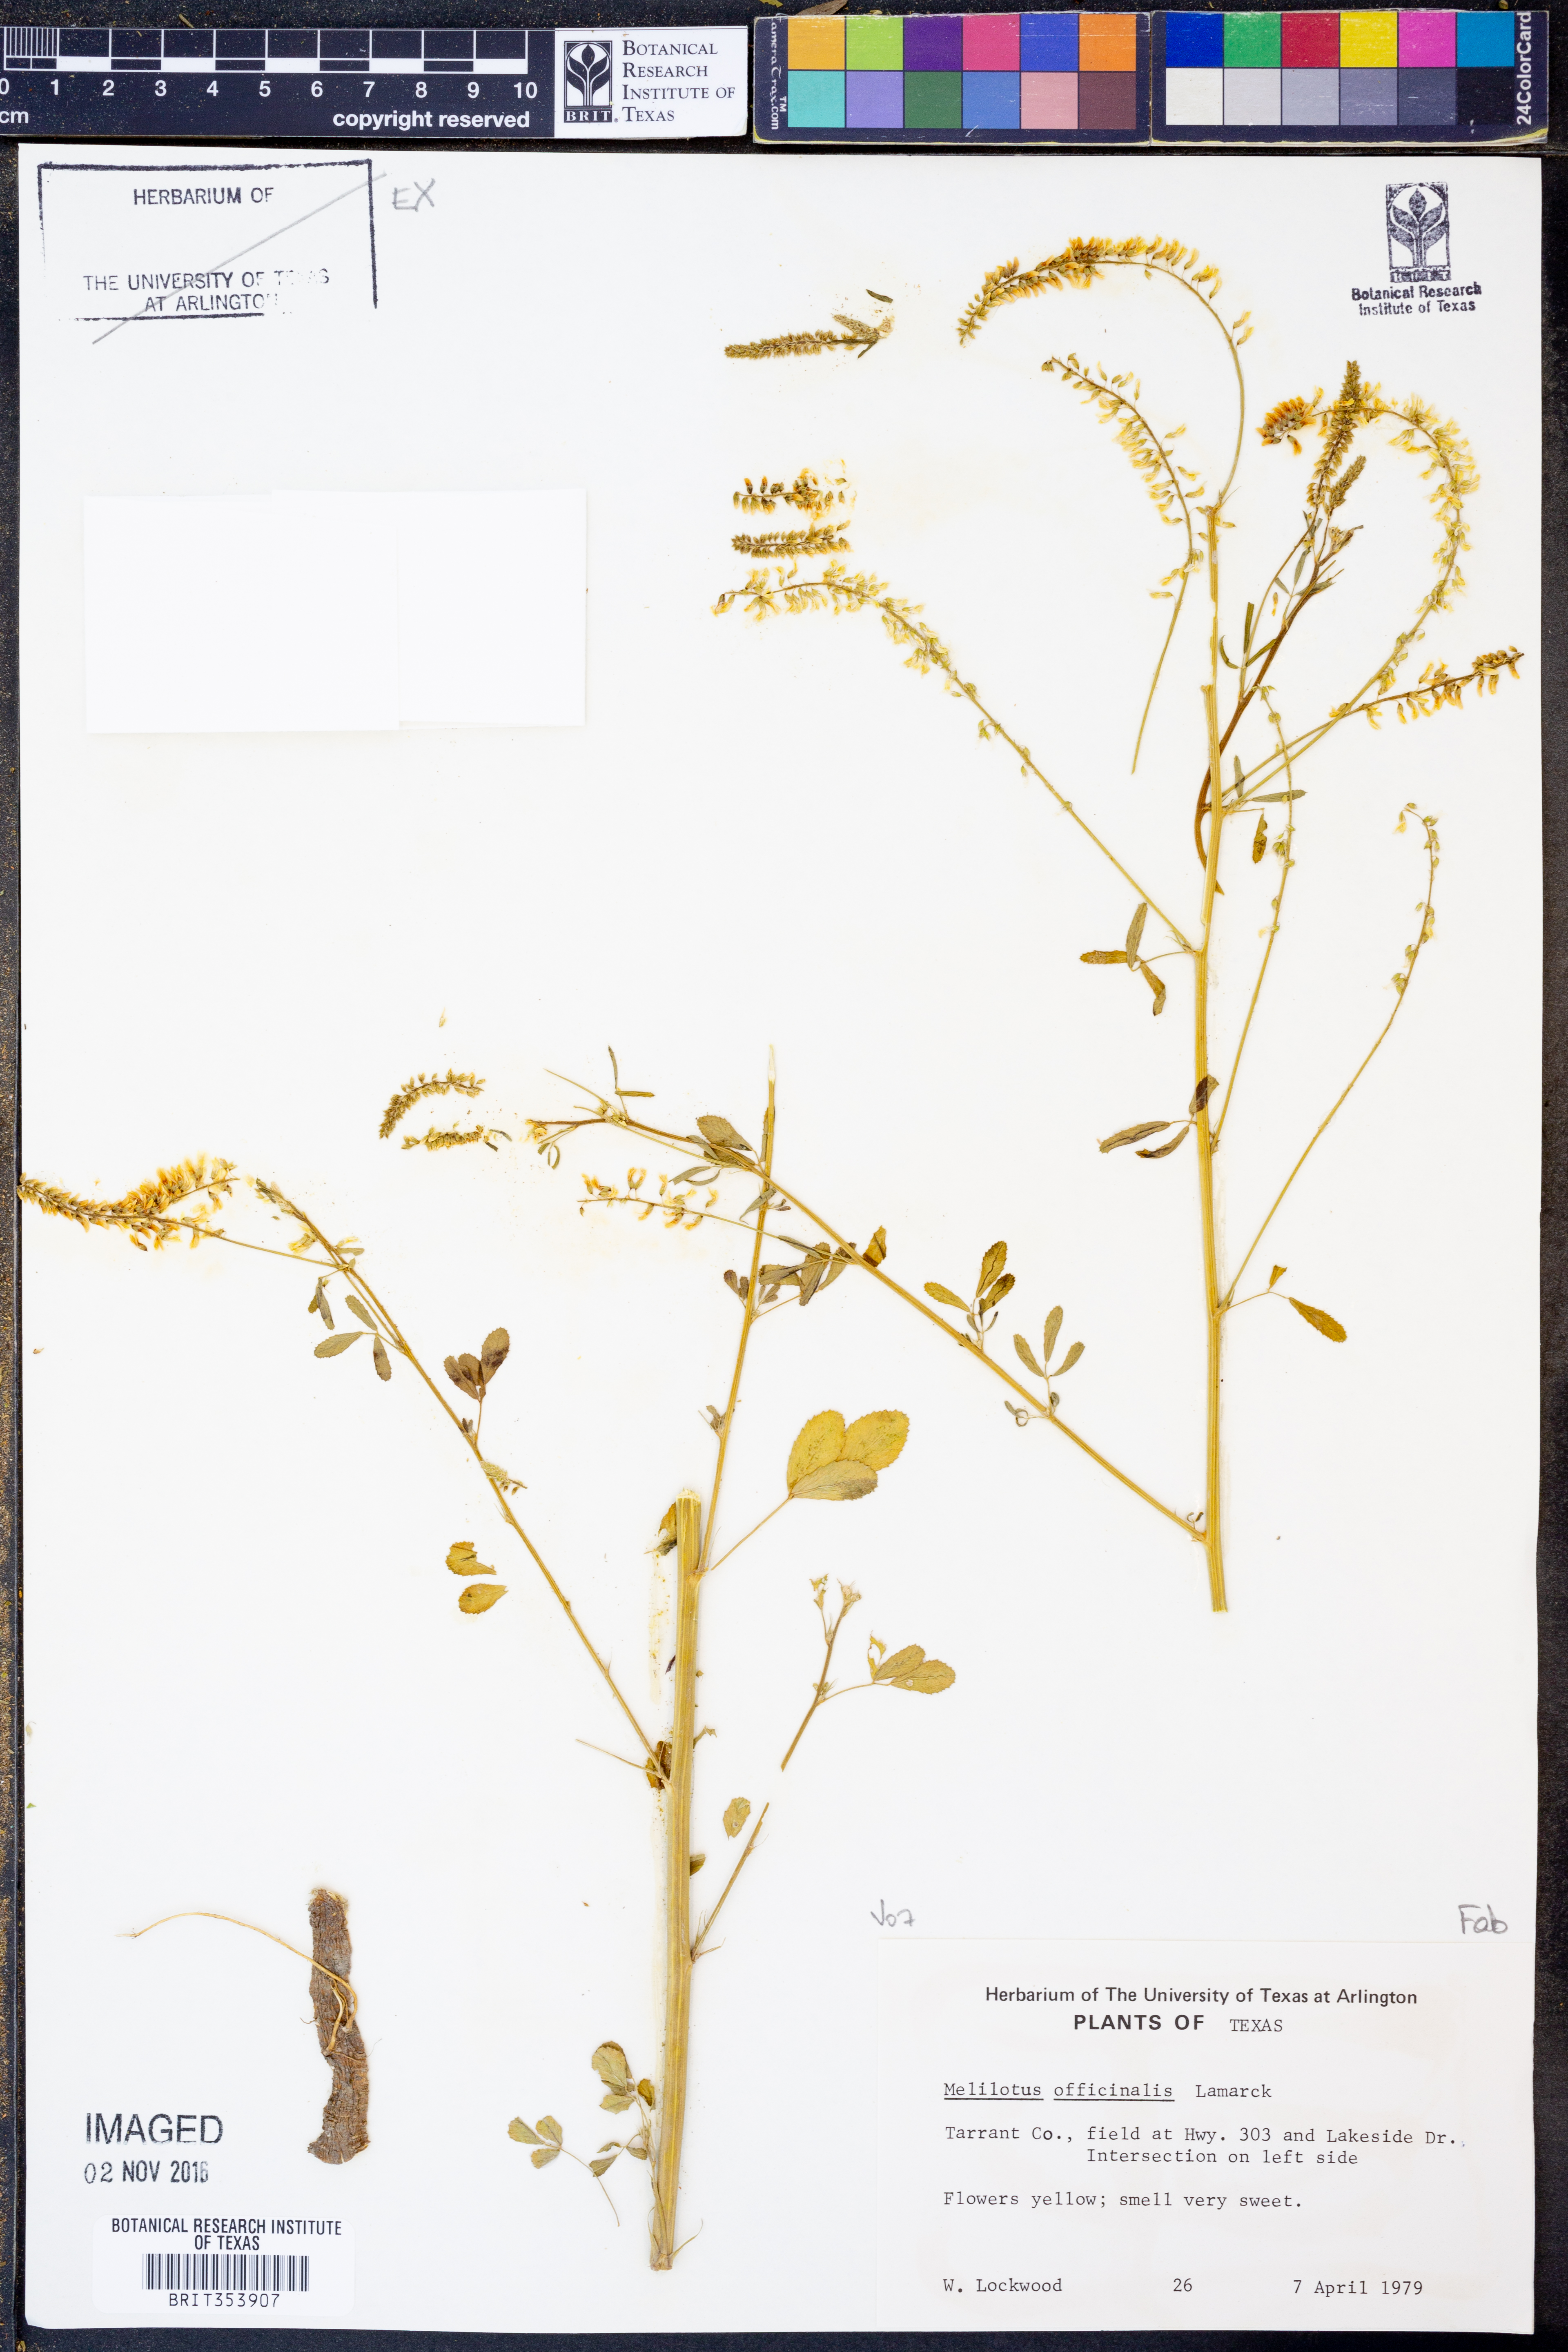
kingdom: Plantae
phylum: Tracheophyta
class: Magnoliopsida
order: Fabales
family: Fabaceae
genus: Melilotus
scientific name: Melilotus officinalis
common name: Sweetclover
